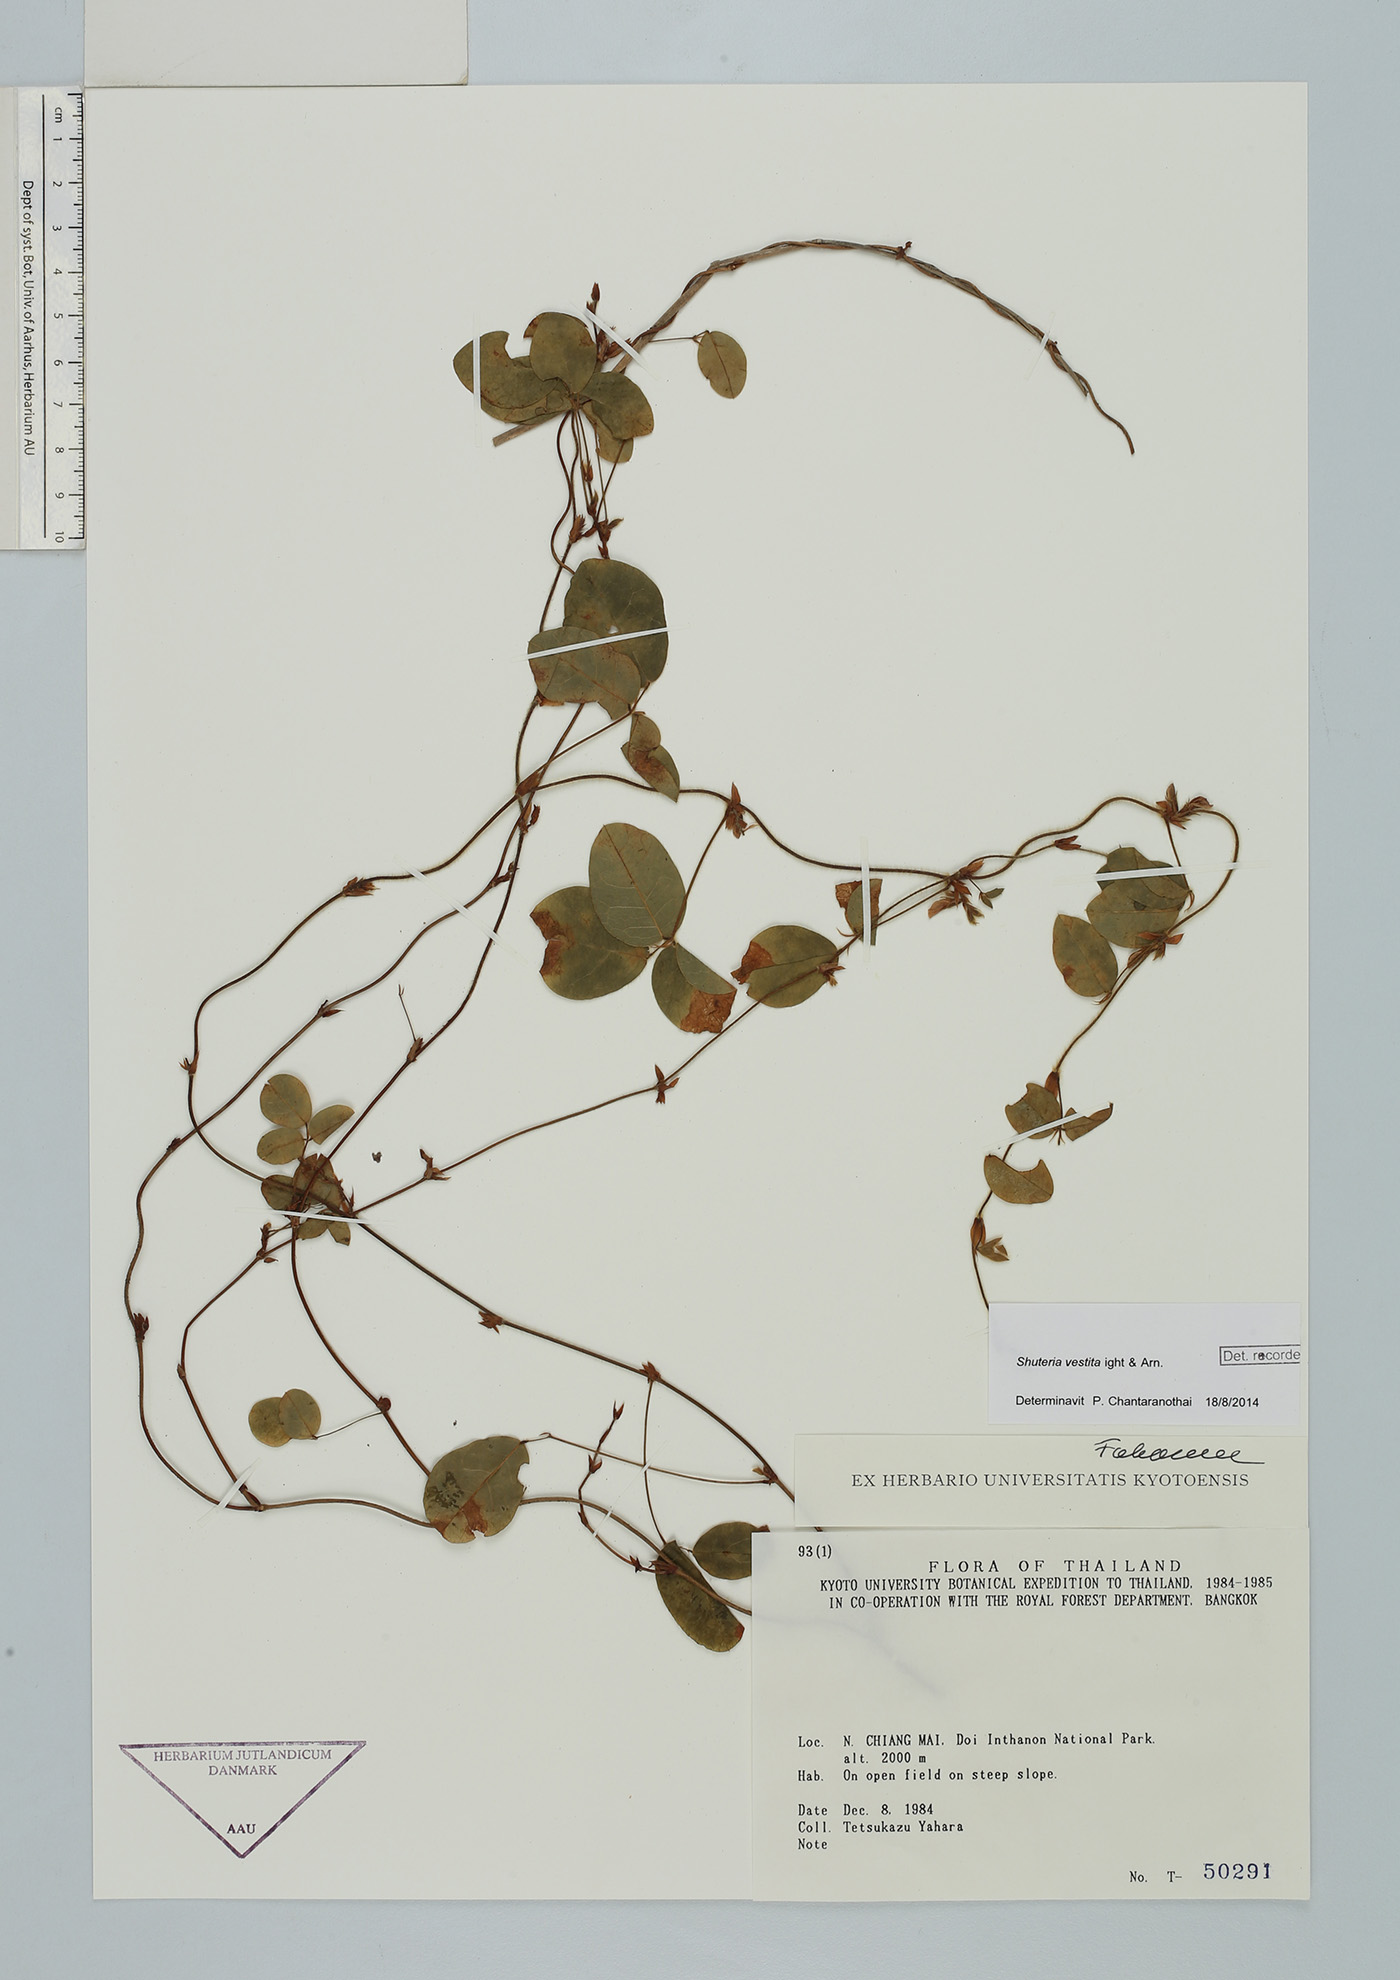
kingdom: Plantae
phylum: Tracheophyta
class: Magnoliopsida
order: Fabales
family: Fabaceae
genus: Shuteria
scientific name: Shuteria vestita
